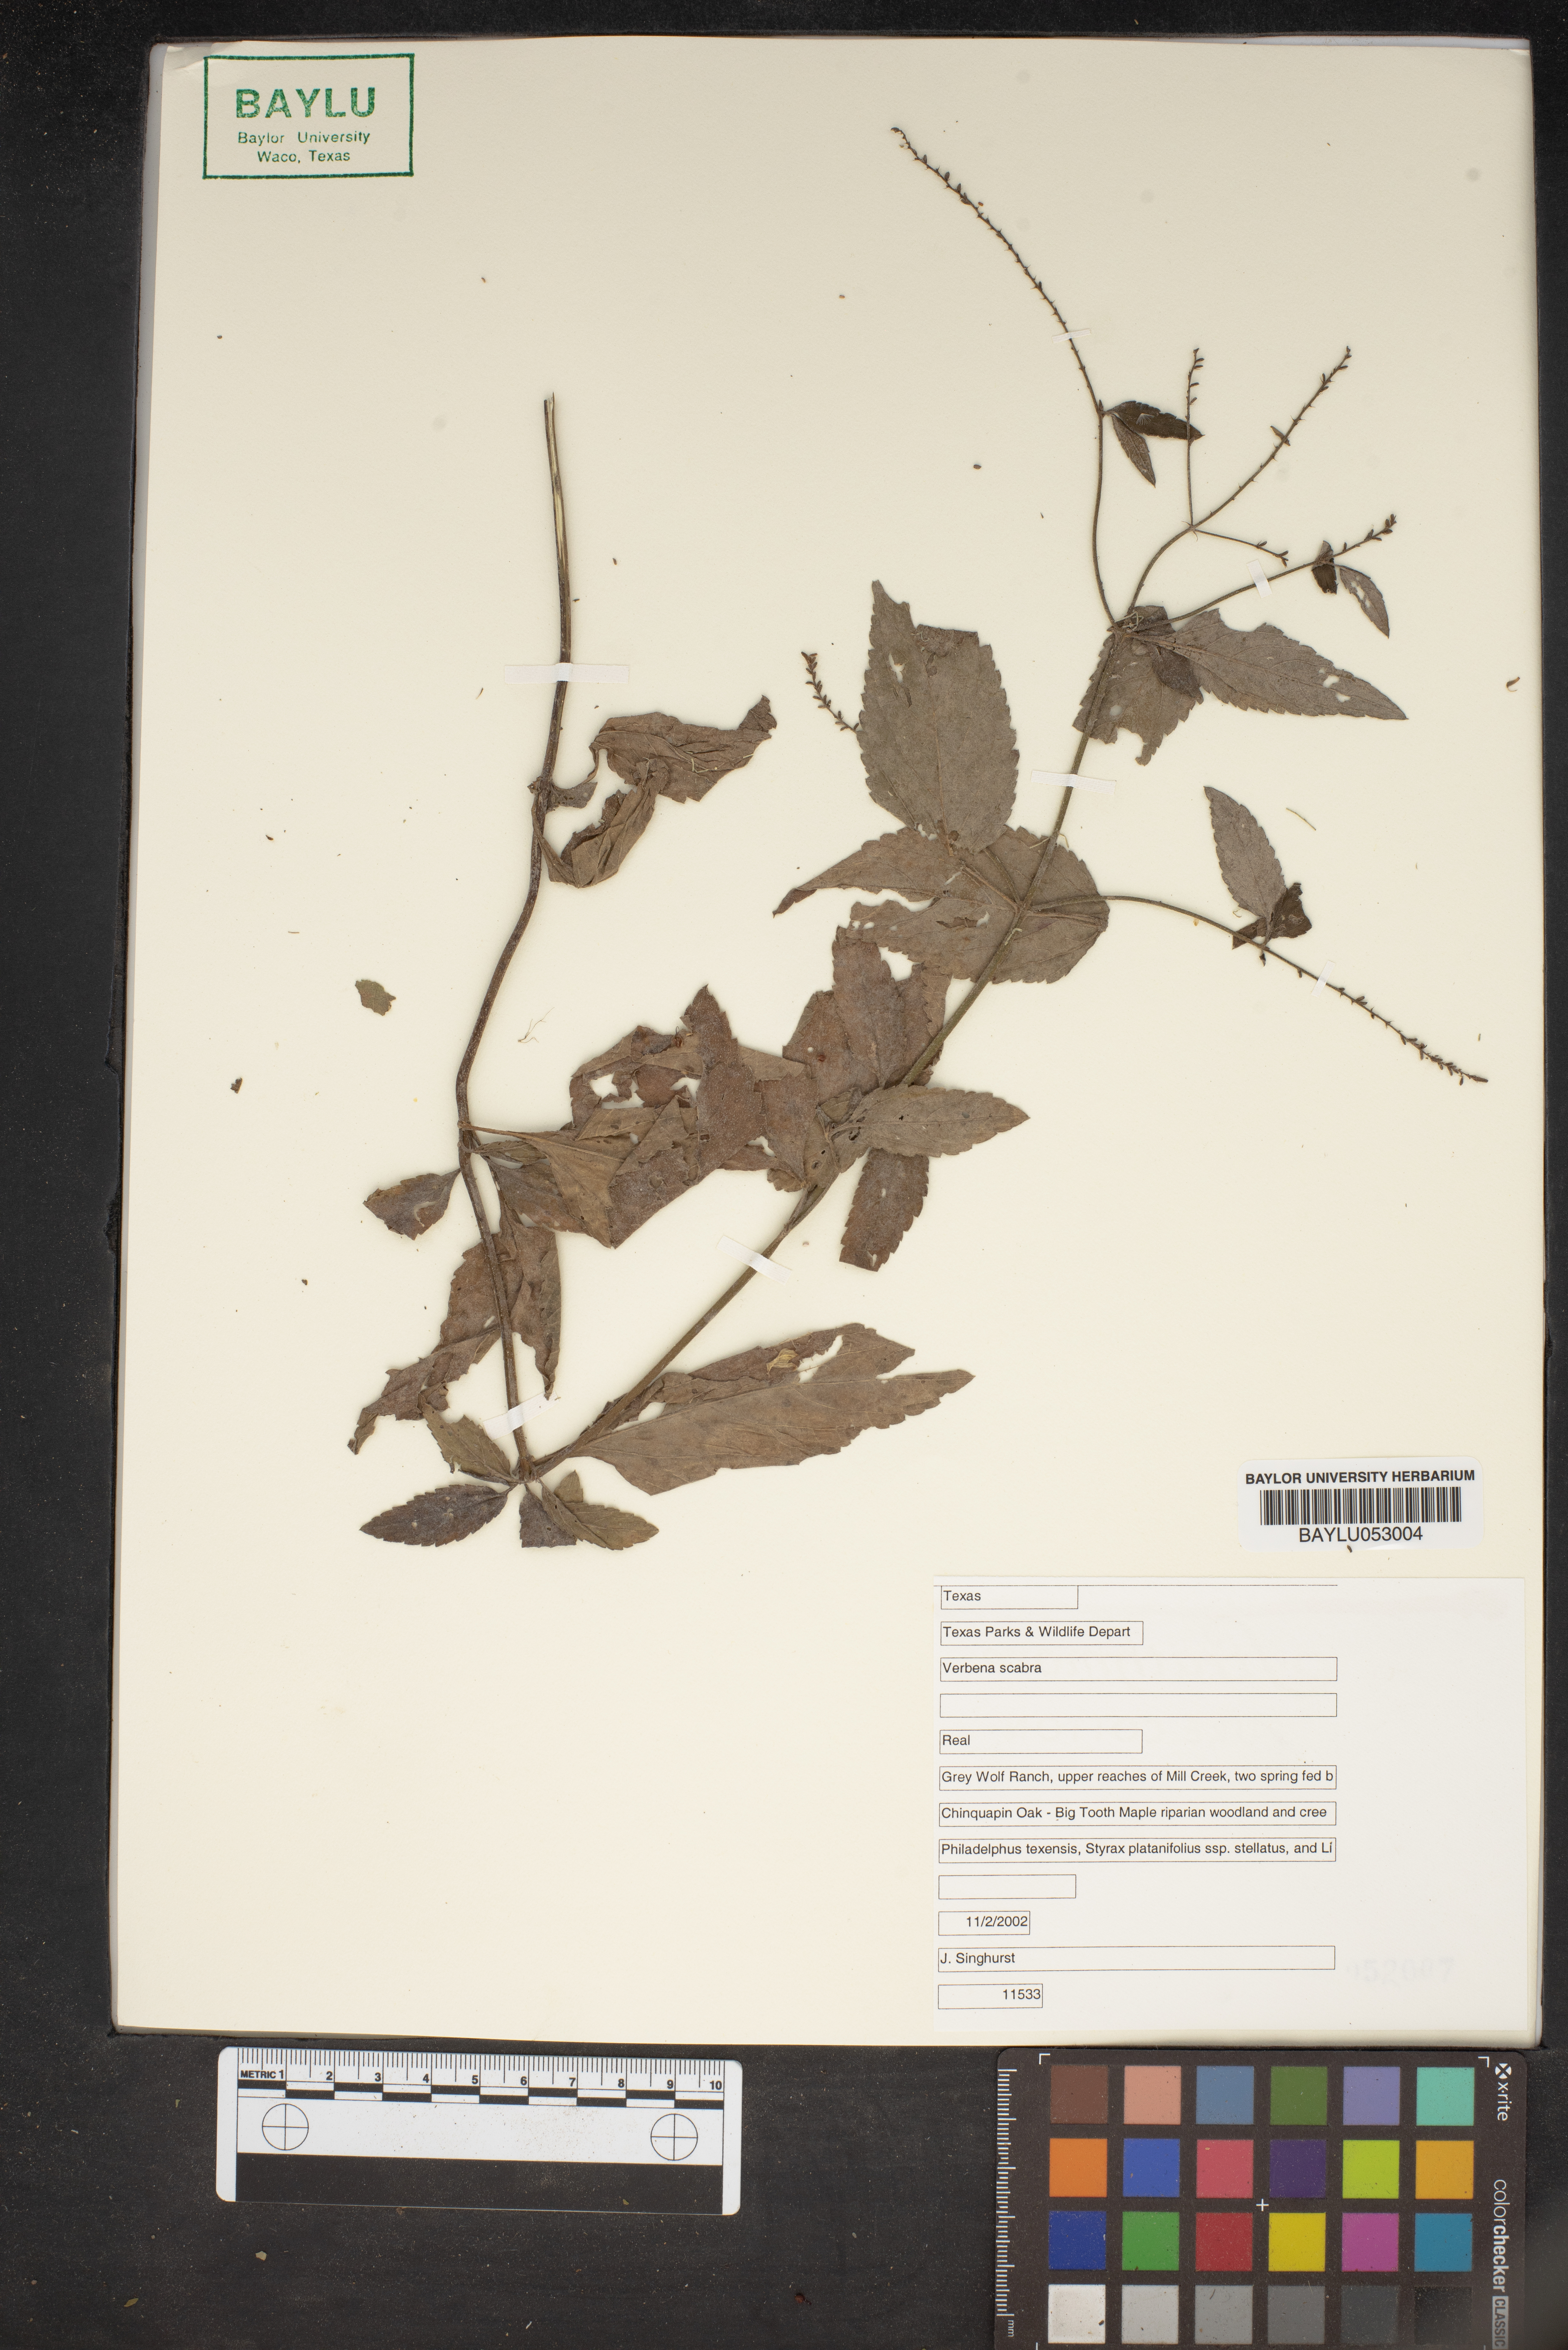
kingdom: Plantae
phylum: Tracheophyta
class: Magnoliopsida
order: Lamiales
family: Verbenaceae
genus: Verbena
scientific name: Verbena scabra
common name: Sandpaper vervain
